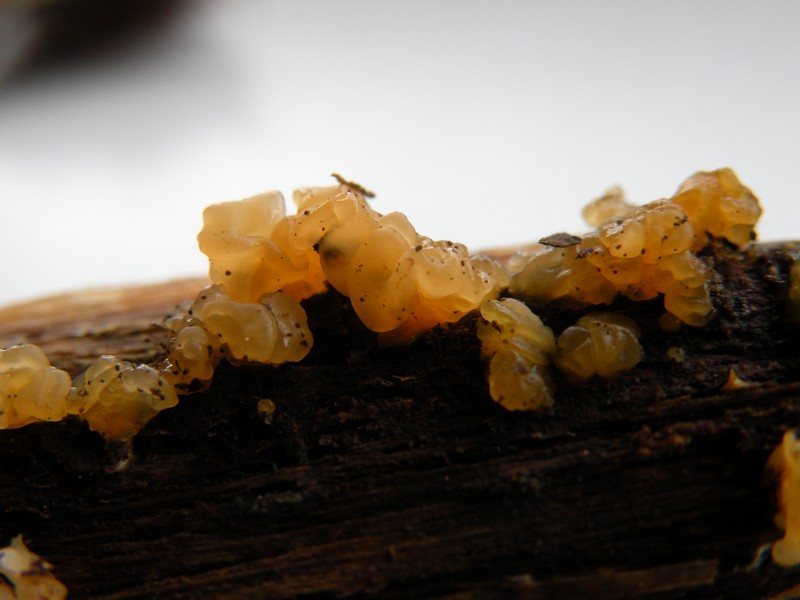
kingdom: Fungi
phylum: Basidiomycota
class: Dacrymycetes
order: Dacrymycetales
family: Dacrymycetaceae
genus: Dacrymyces
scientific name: Dacrymyces lacrymalis
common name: rynket tåresvamp
